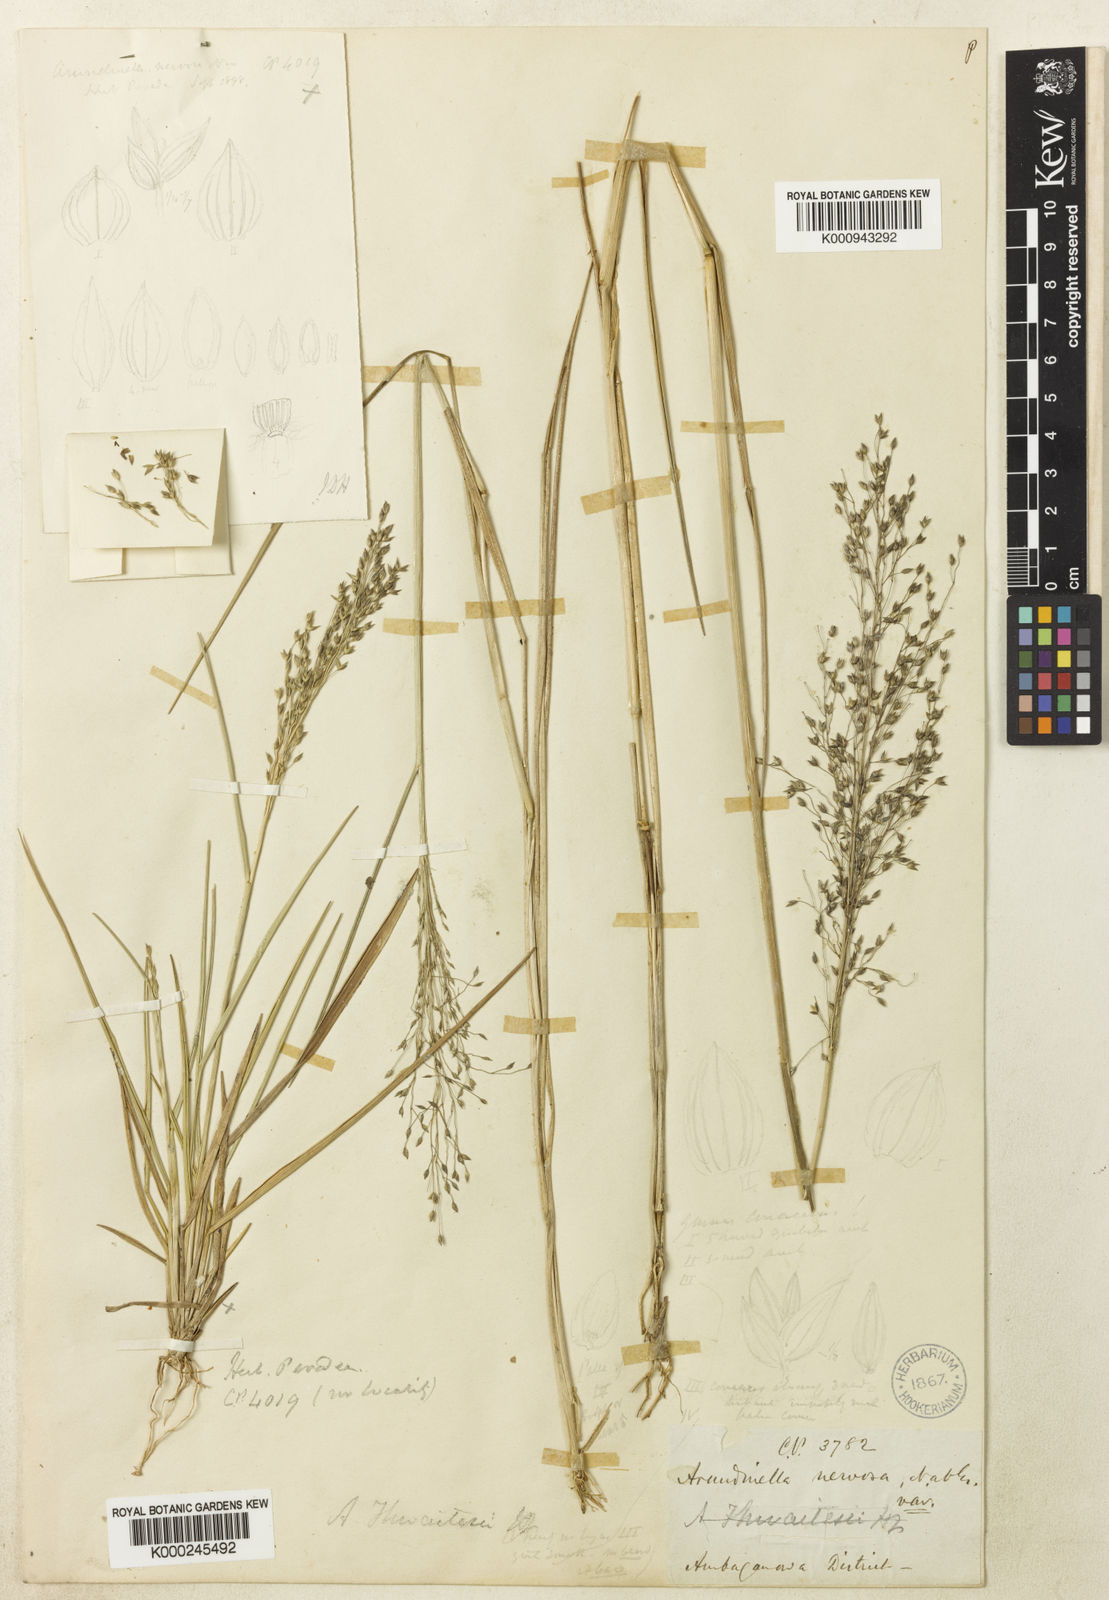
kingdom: Plantae
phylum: Tracheophyta
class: Liliopsida
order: Poales
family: Poaceae
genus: Arundinella
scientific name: Arundinella thwaitesii
